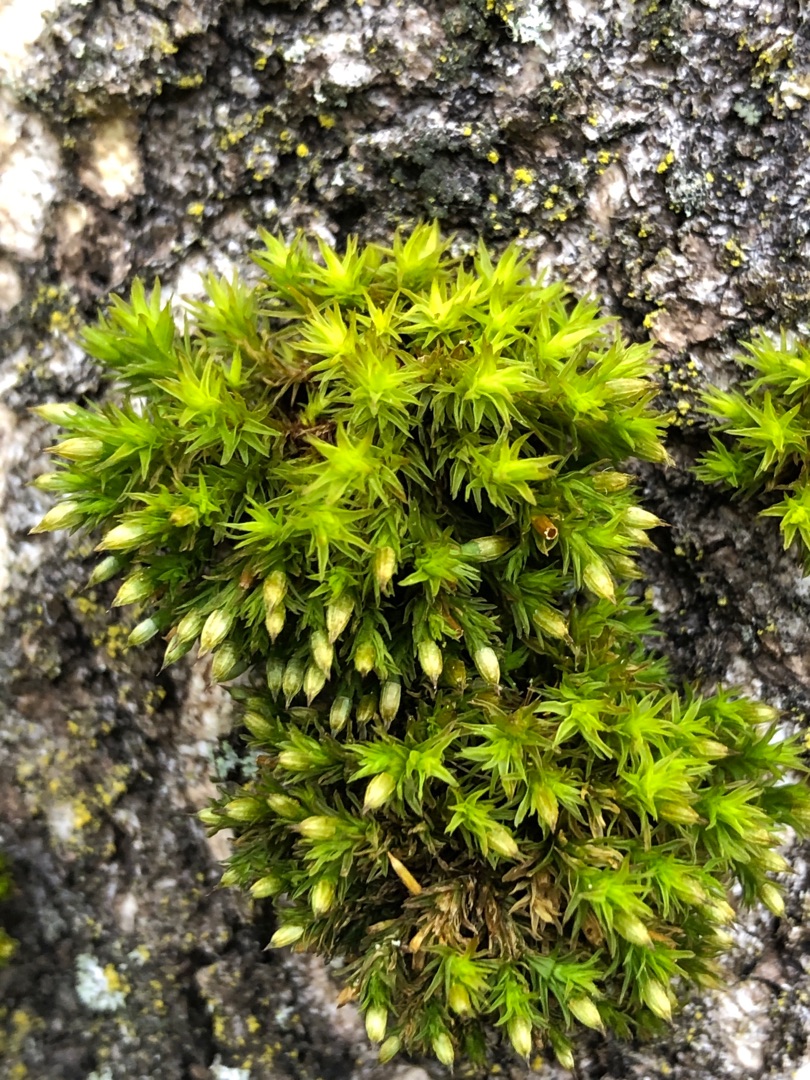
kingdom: Plantae
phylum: Bryophyta
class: Bryopsida
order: Orthotrichales
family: Orthotrichaceae
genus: Lewinskya
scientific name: Lewinskya affinis
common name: Almindelig furehætte
